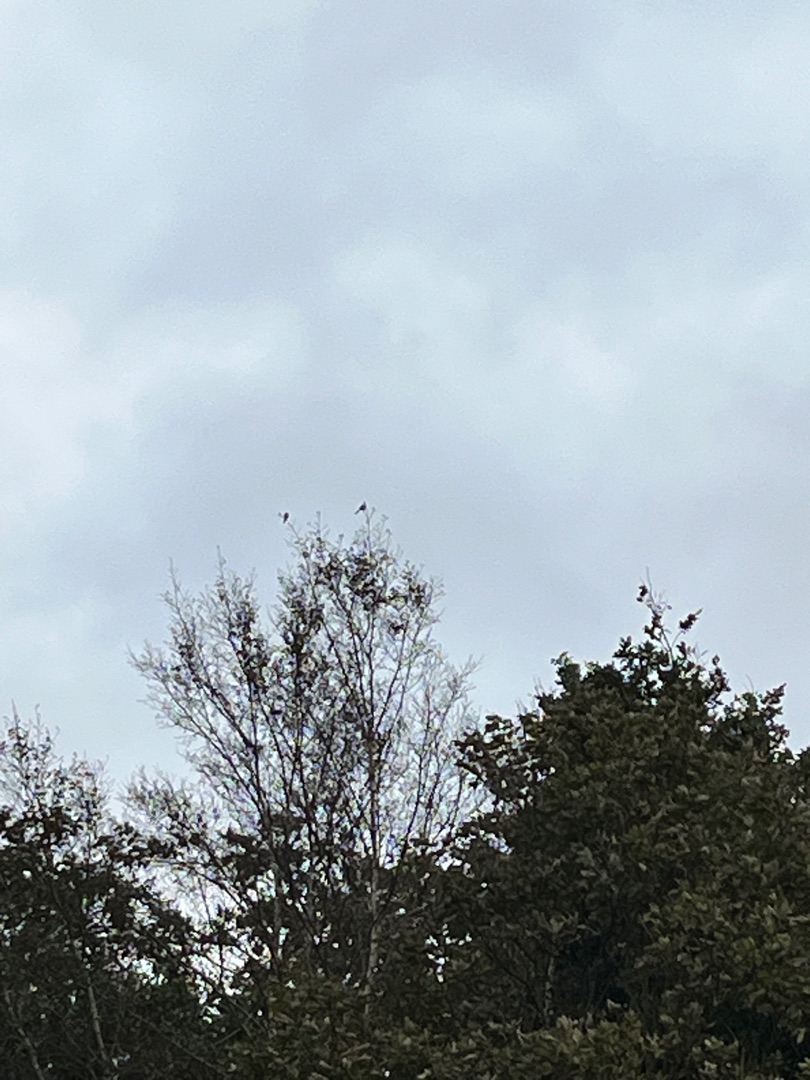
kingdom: Animalia
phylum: Chordata
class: Aves
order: Passeriformes
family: Aegithalidae
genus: Aegithalos
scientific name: Aegithalos caudatus
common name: Halemejse
